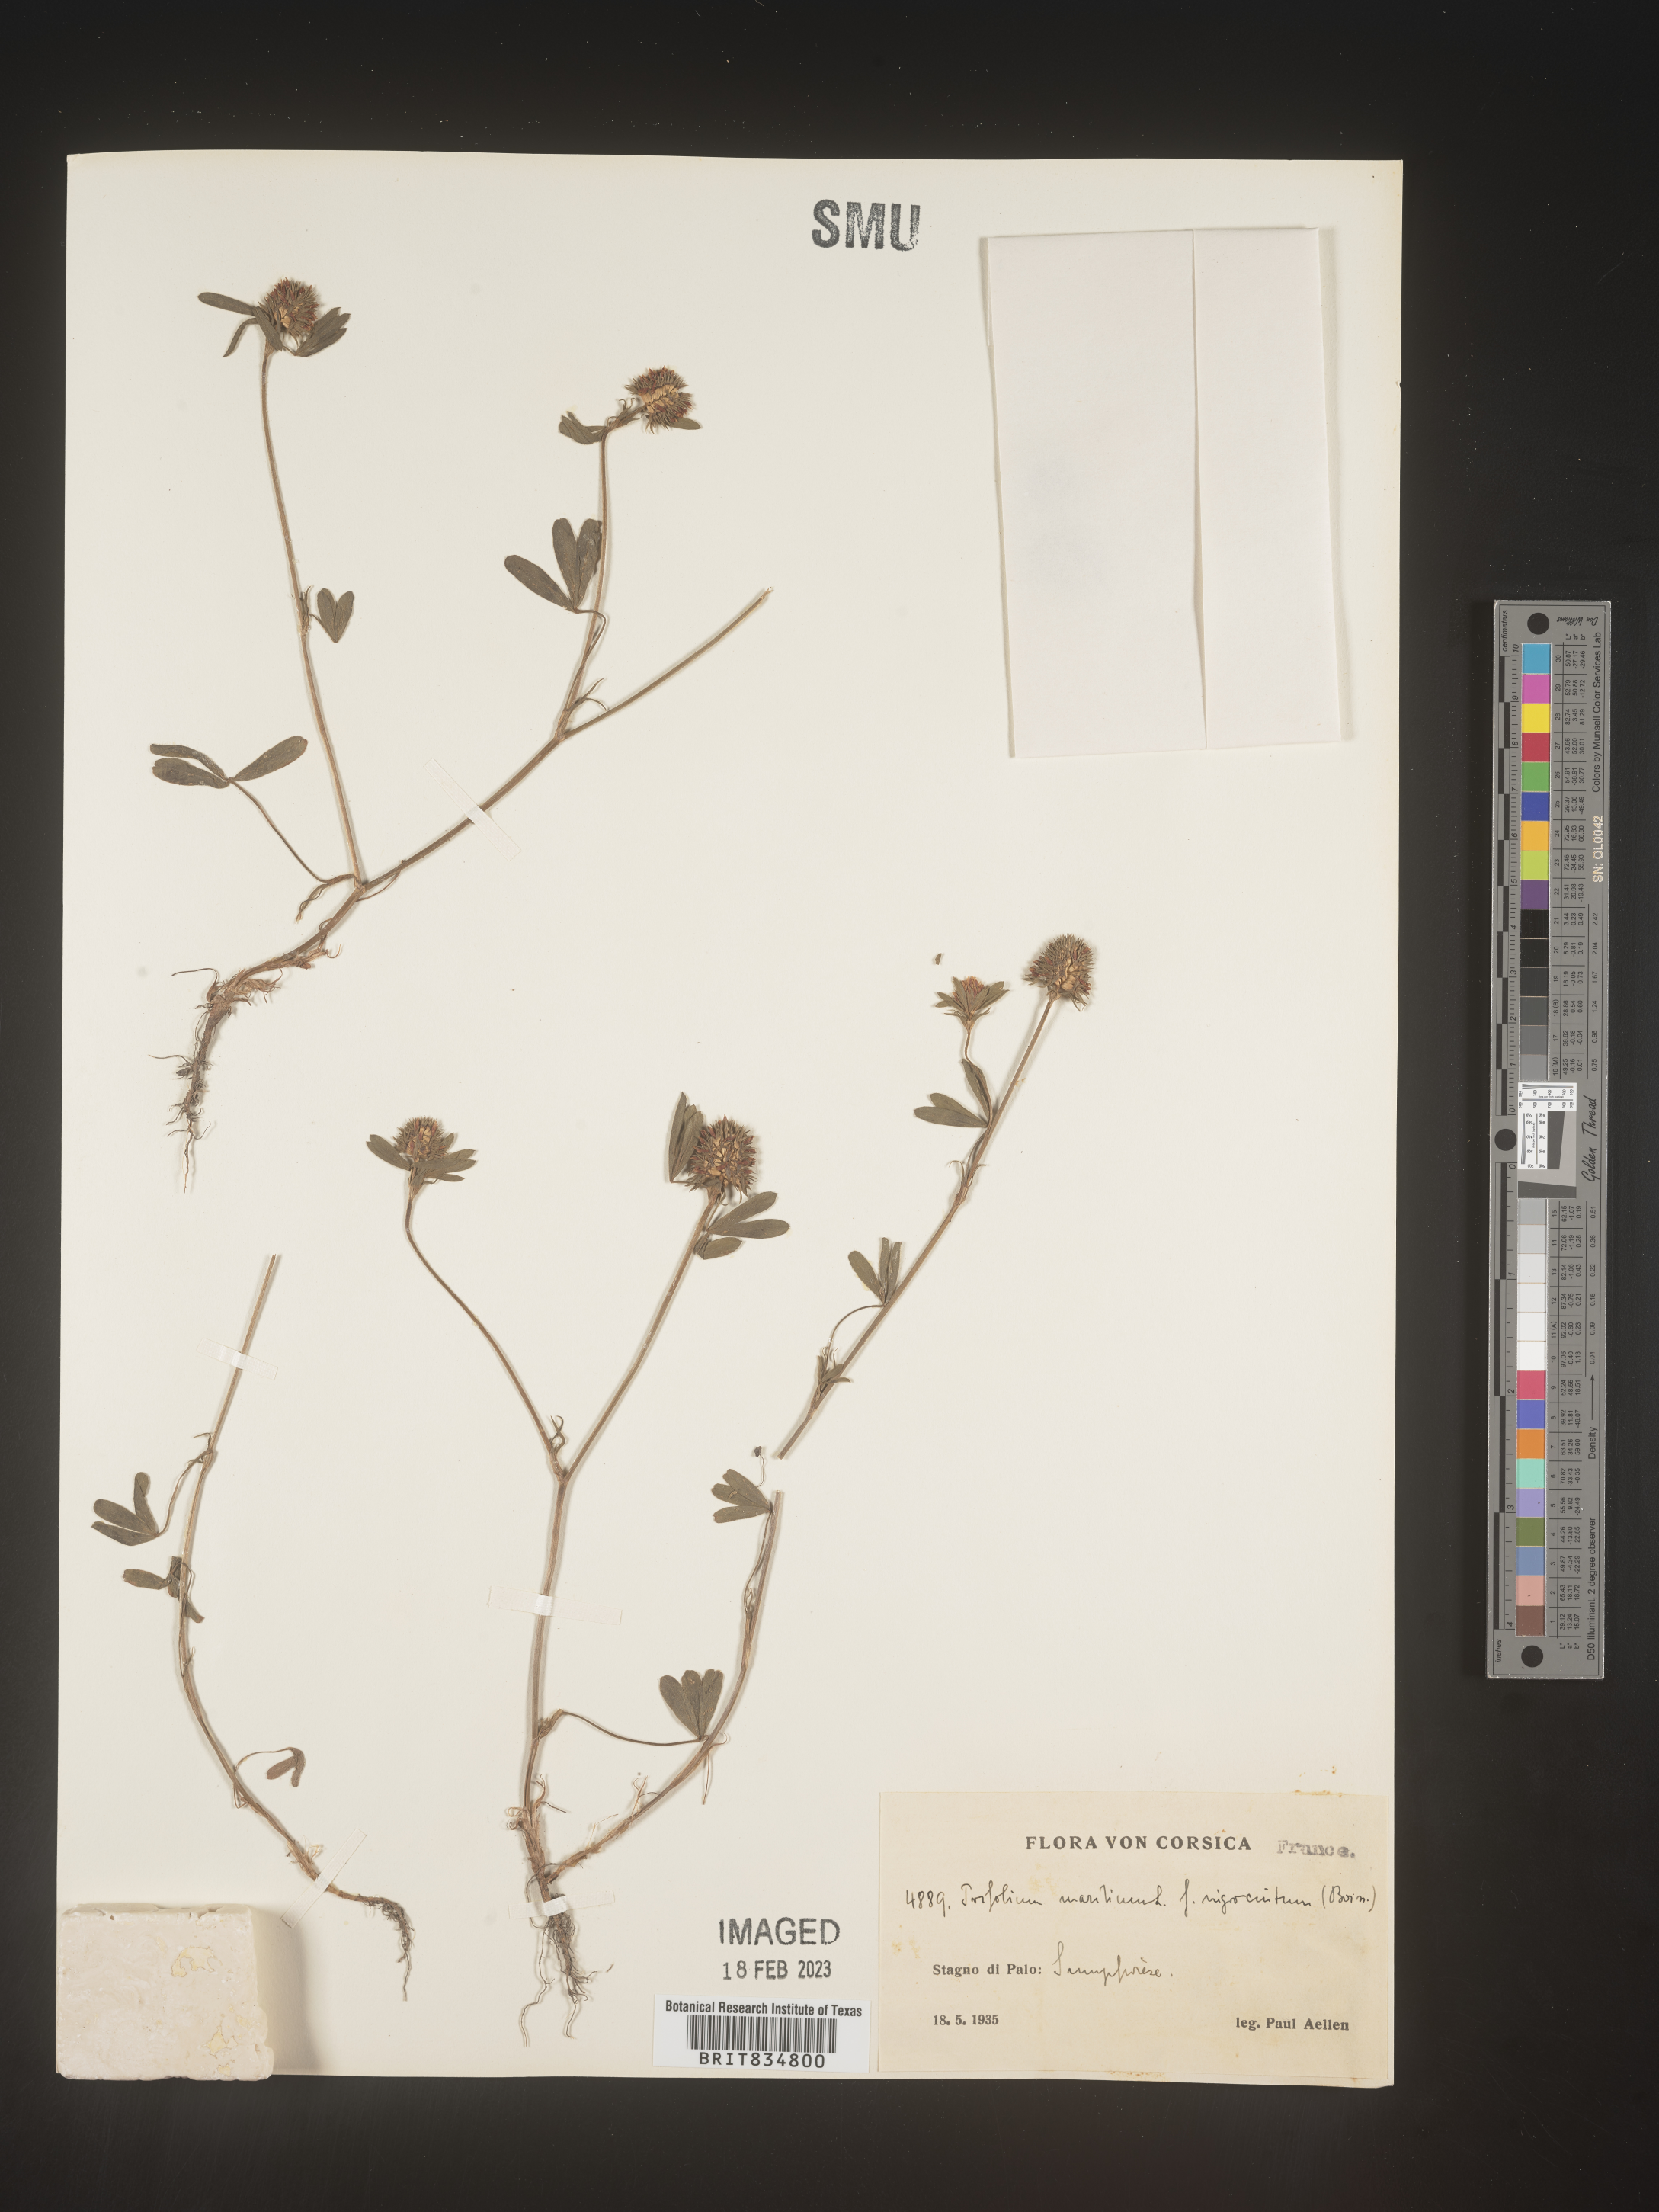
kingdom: Plantae
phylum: Tracheophyta
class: Magnoliopsida
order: Fabales
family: Fabaceae
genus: Trifolium
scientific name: Trifolium
